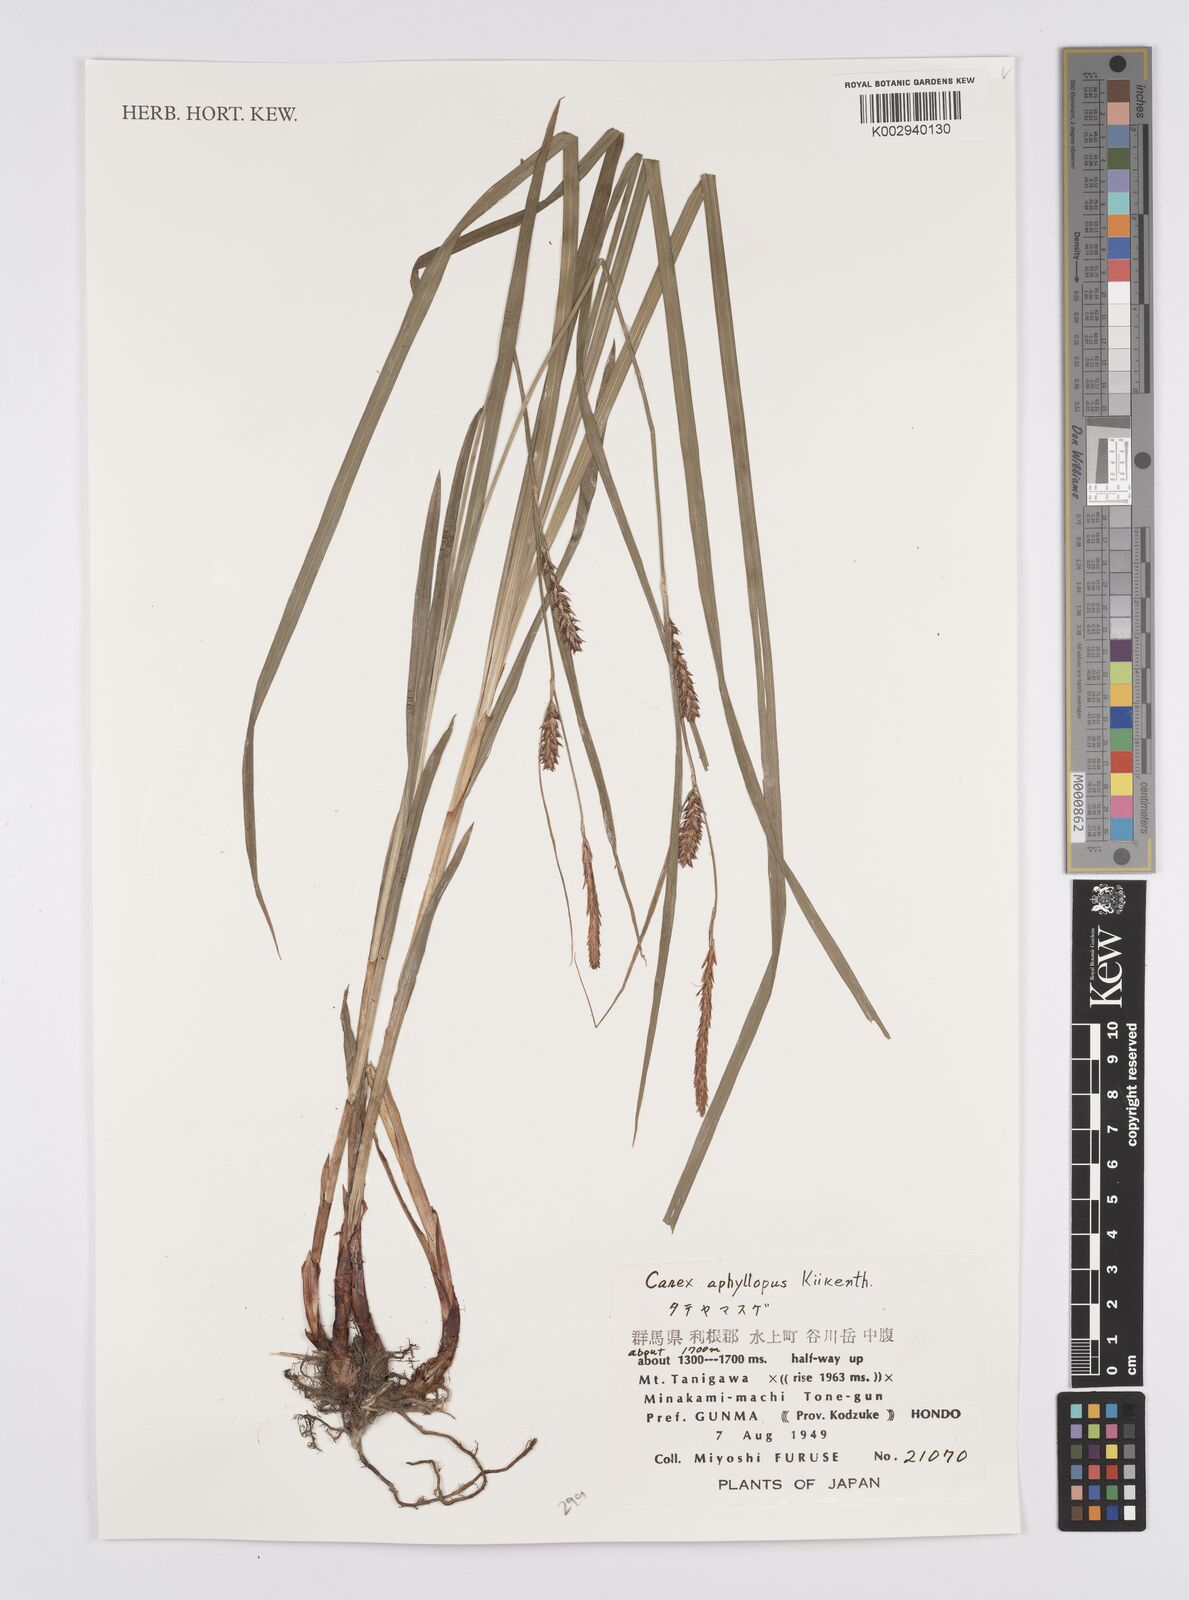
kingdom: Plantae
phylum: Tracheophyta
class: Liliopsida
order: Poales
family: Cyperaceae
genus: Carex
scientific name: Carex aphyllopus
